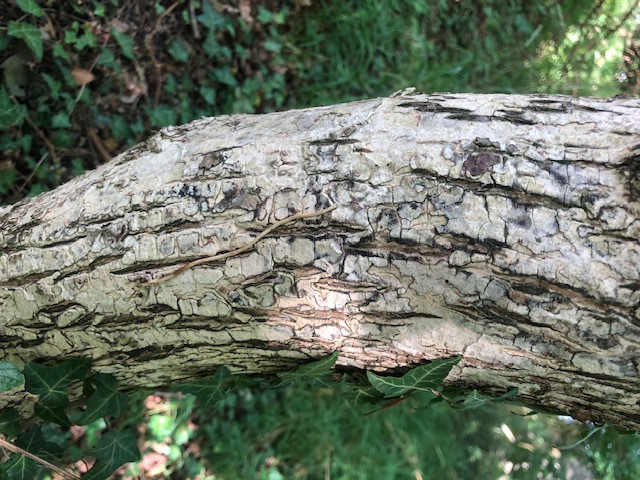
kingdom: Fungi
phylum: Basidiomycota
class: Agaricomycetes
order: Agaricales
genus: Dendrothele
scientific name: Dendrothele acerina
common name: navr-kalkplet
